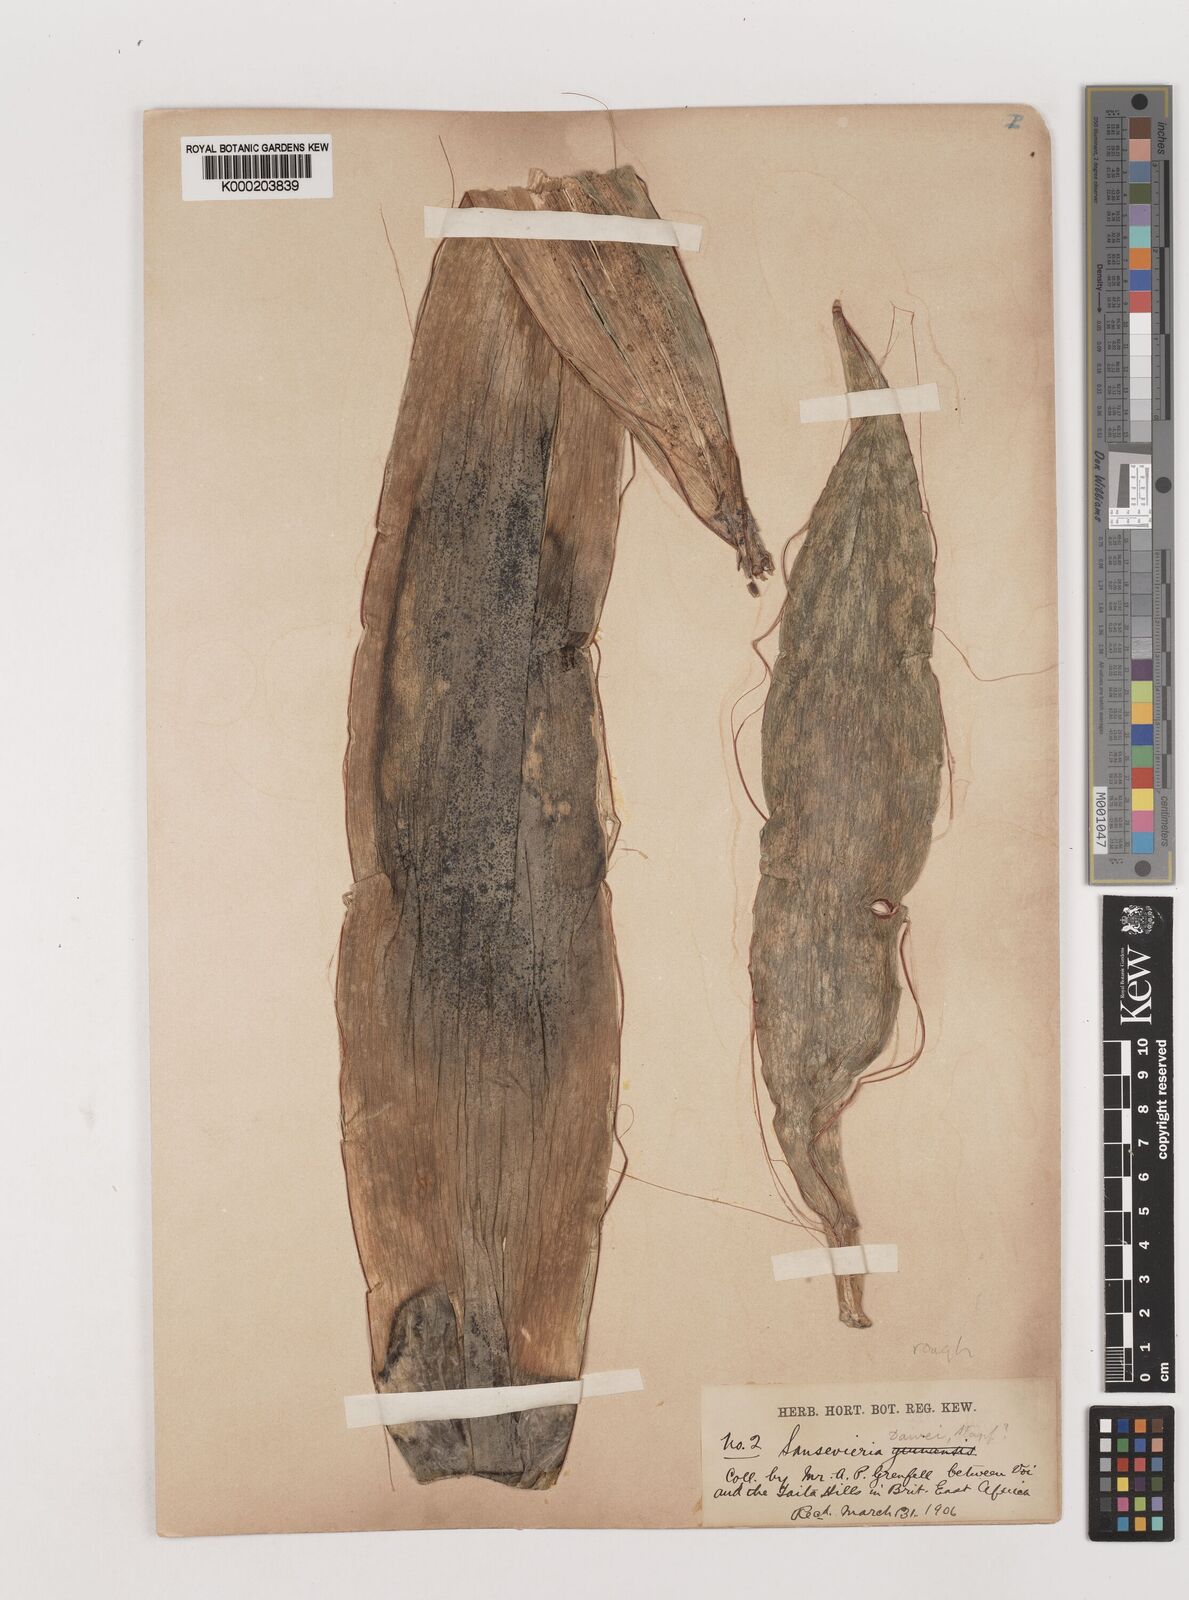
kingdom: Plantae
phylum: Tracheophyta
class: Liliopsida
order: Asparagales
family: Asparagaceae
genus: Dracaena
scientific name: Dracaena forskaliana
